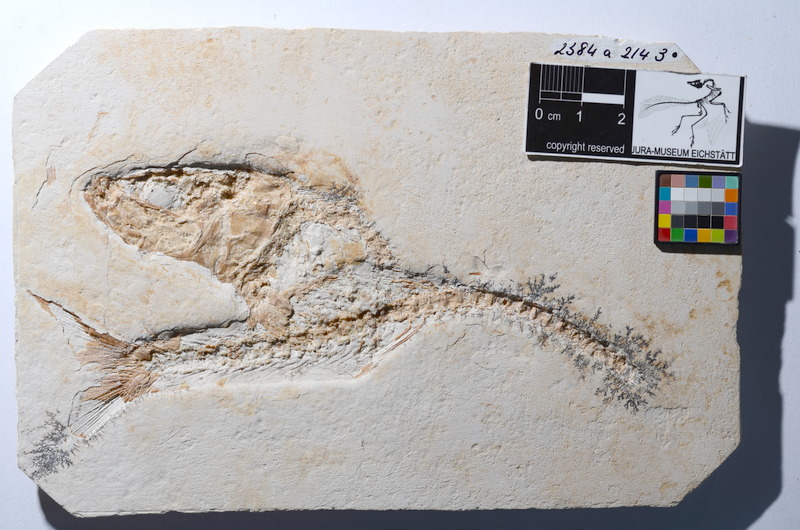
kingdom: Animalia
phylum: Chordata
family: Ascalaboidae
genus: Tharsis
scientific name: Tharsis dubius
